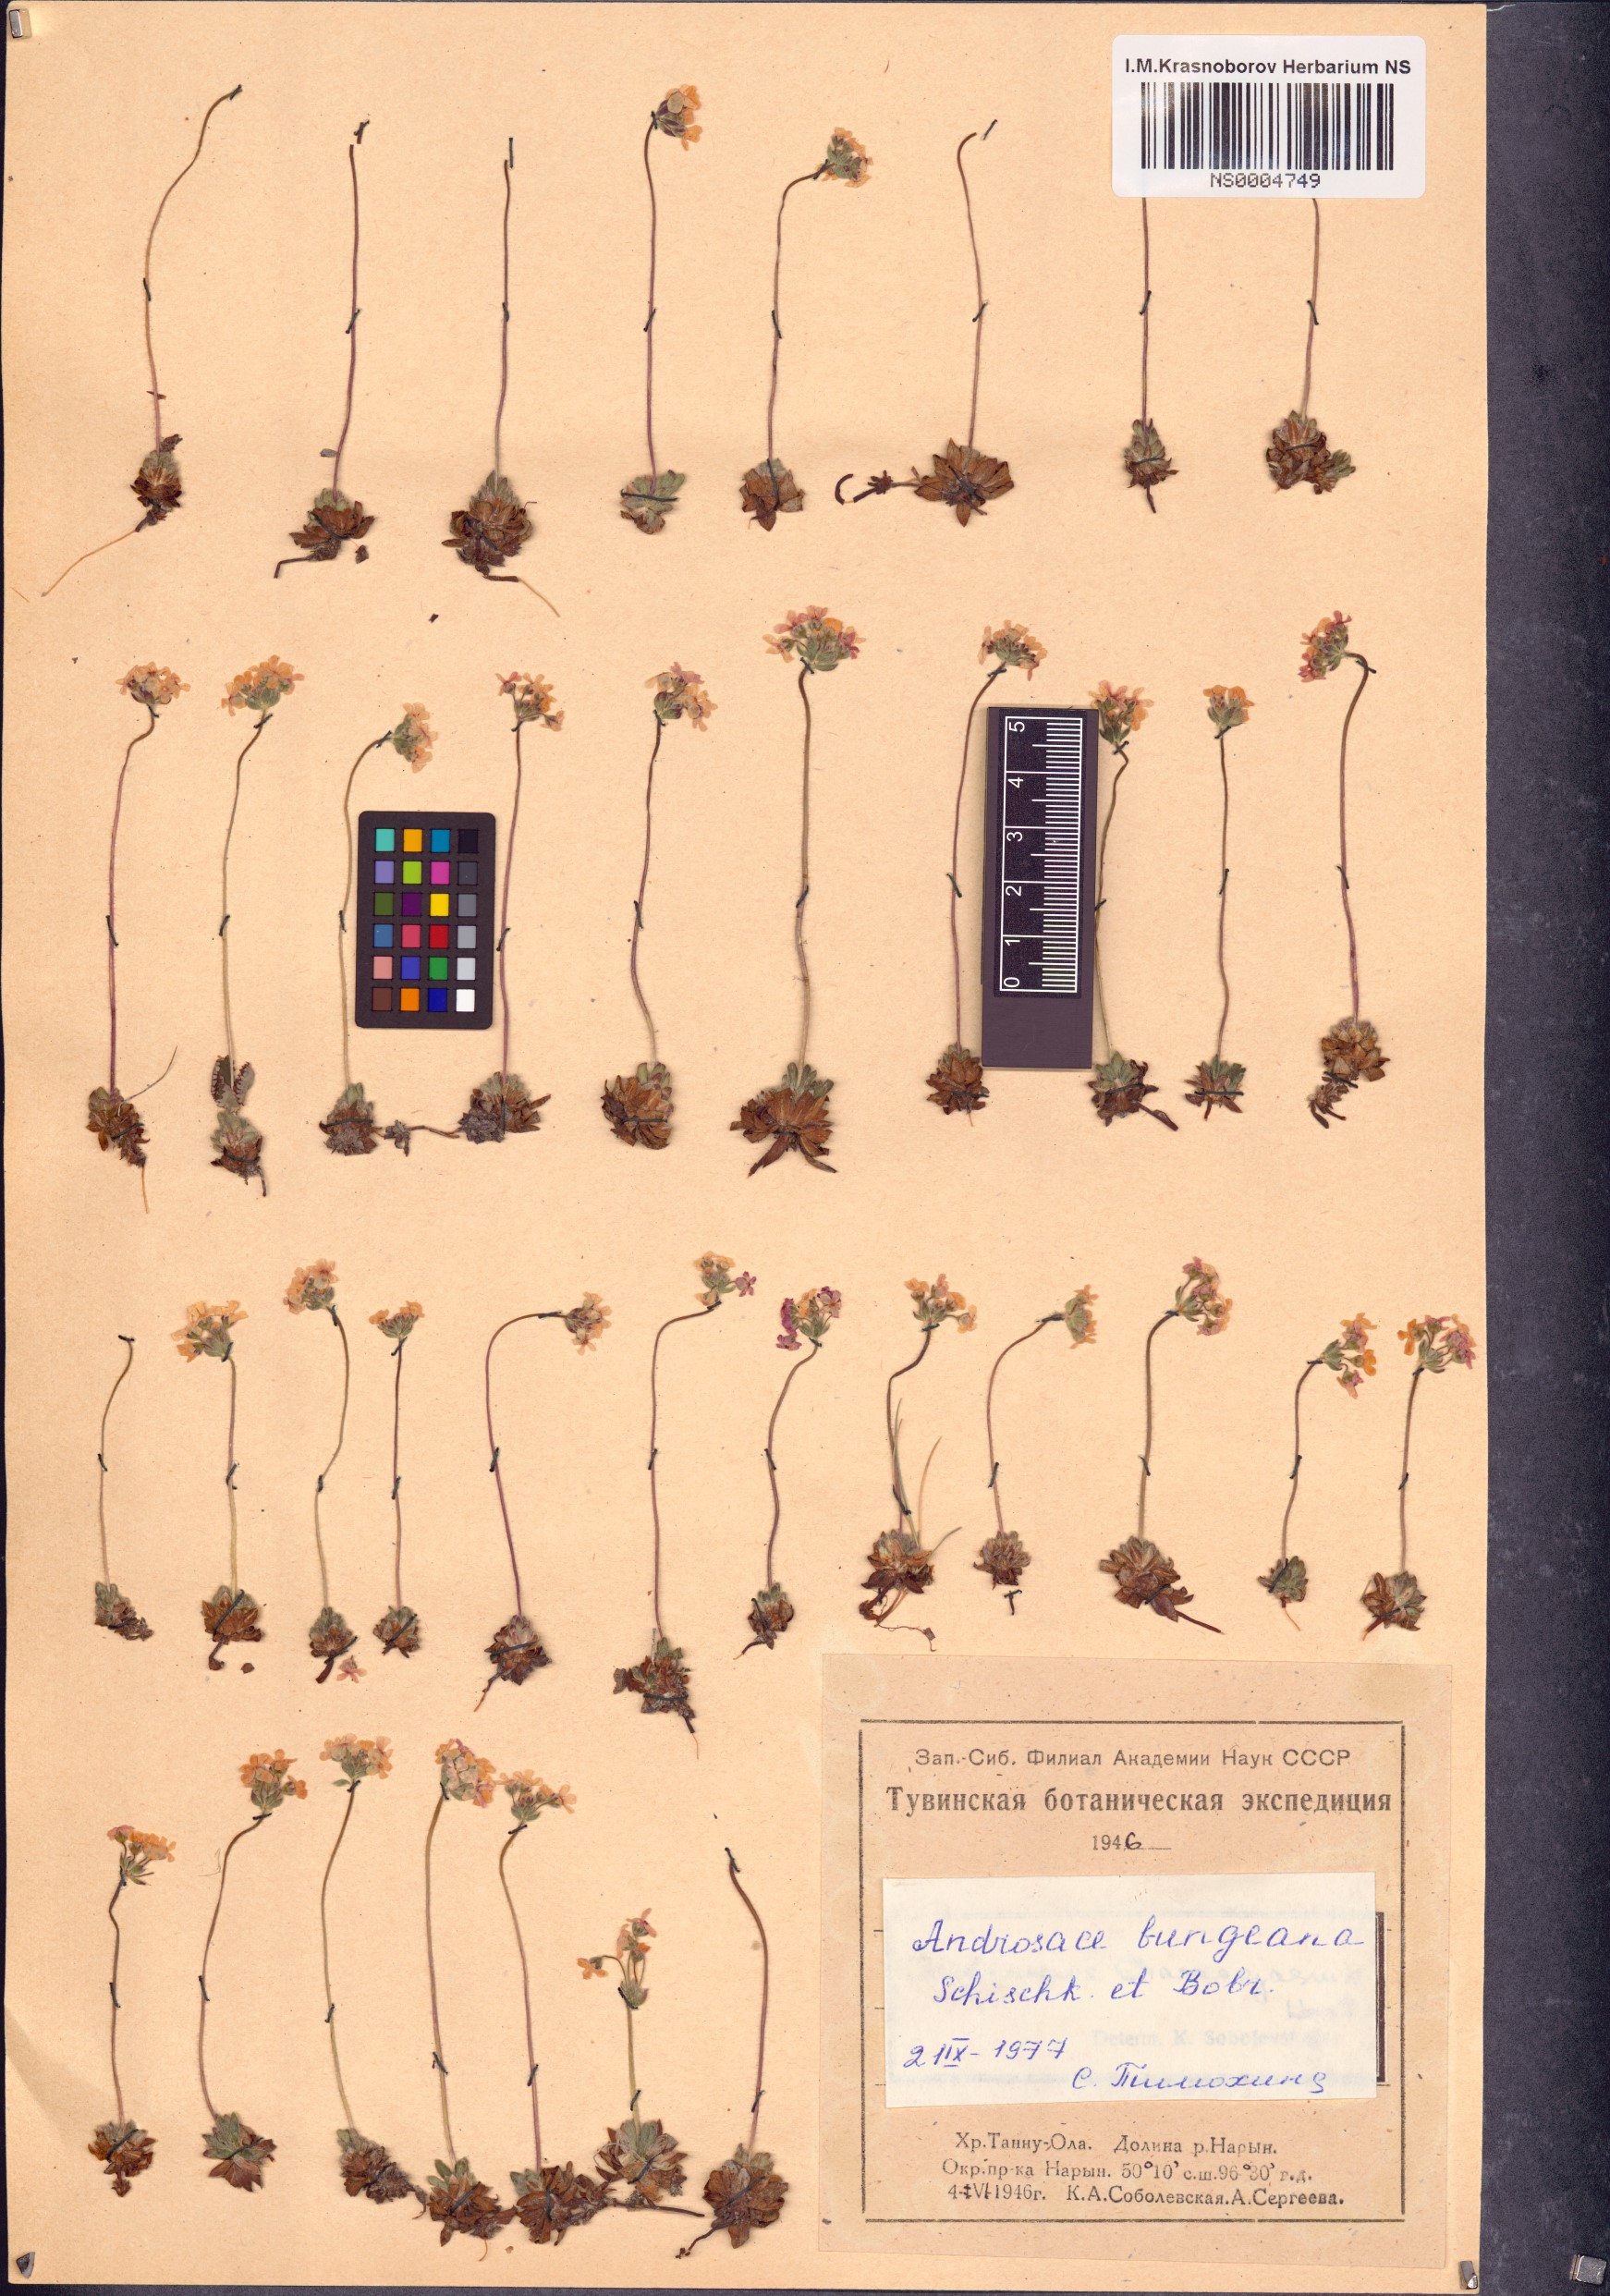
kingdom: Plantae
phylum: Tracheophyta
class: Magnoliopsida
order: Ericales
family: Primulaceae
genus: Androsace
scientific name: Androsace bungeana
